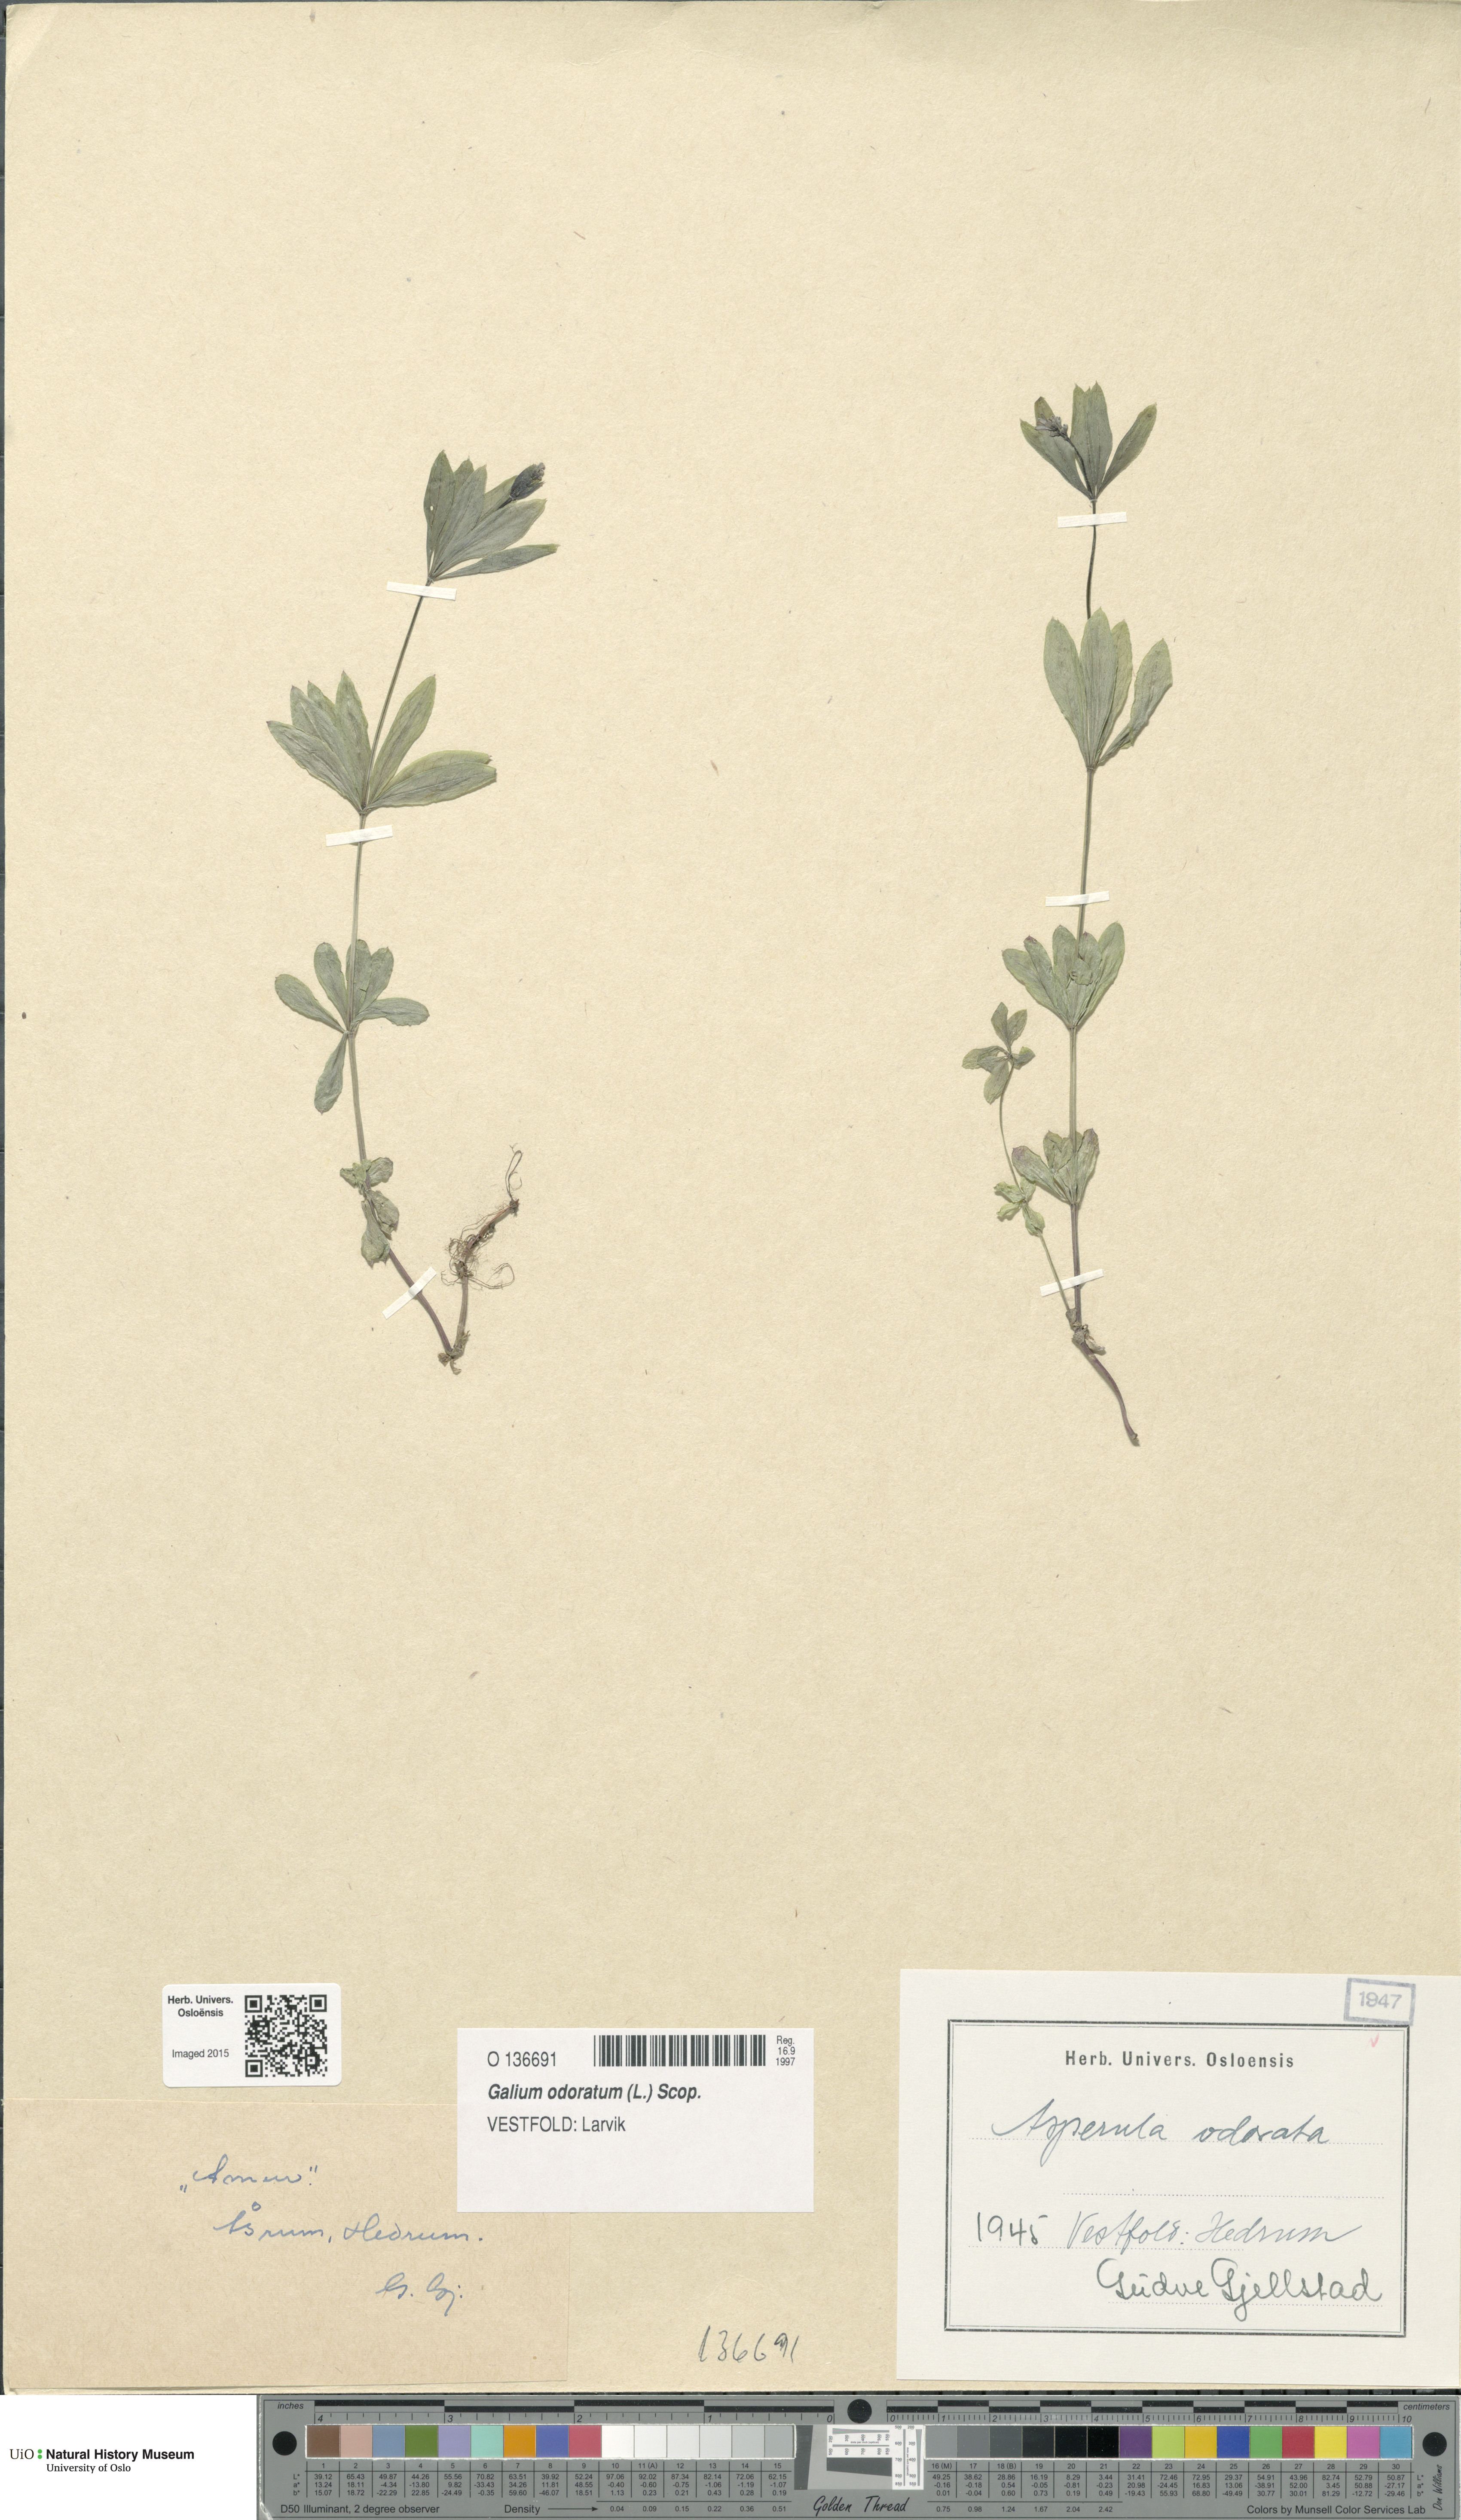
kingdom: Plantae
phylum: Tracheophyta
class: Magnoliopsida
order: Gentianales
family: Rubiaceae
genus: Galium
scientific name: Galium odoratum
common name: Sweet woodruff
